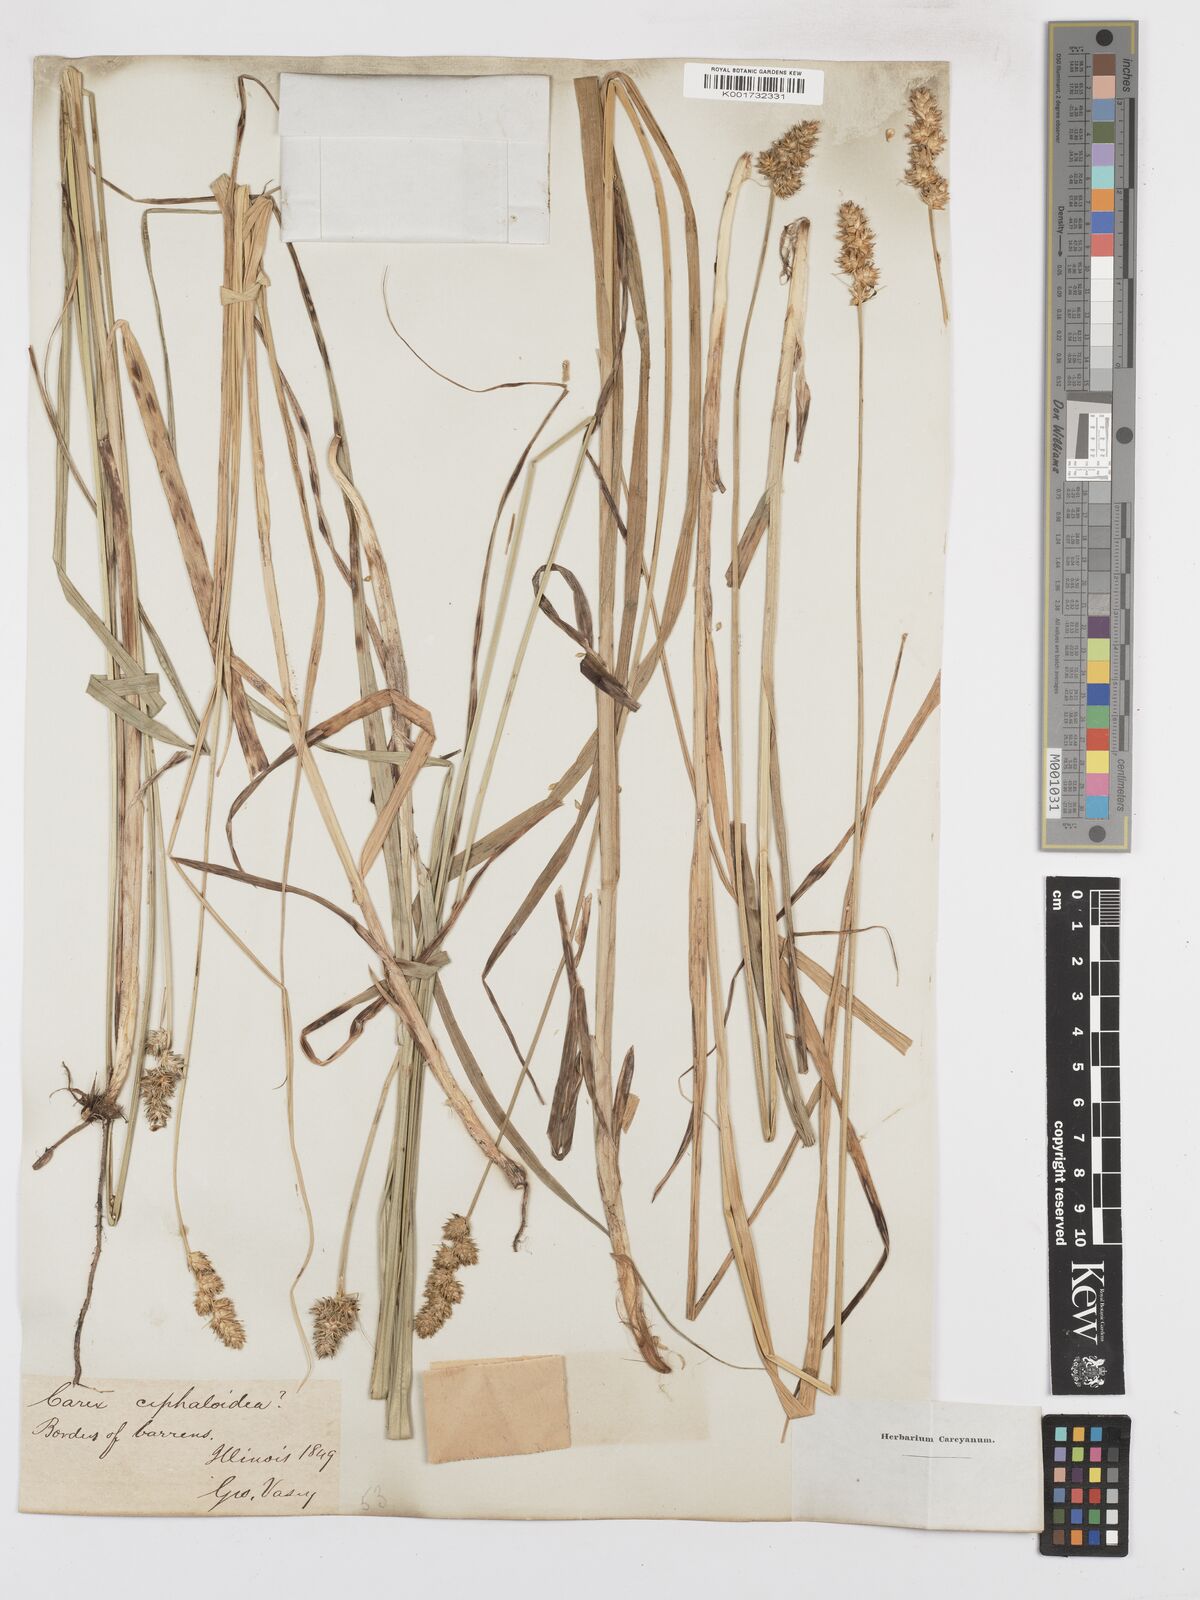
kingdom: Plantae
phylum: Tracheophyta
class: Liliopsida
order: Poales
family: Cyperaceae
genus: Carex
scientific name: Carex cephaloidea
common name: Thin-leaved sedge
